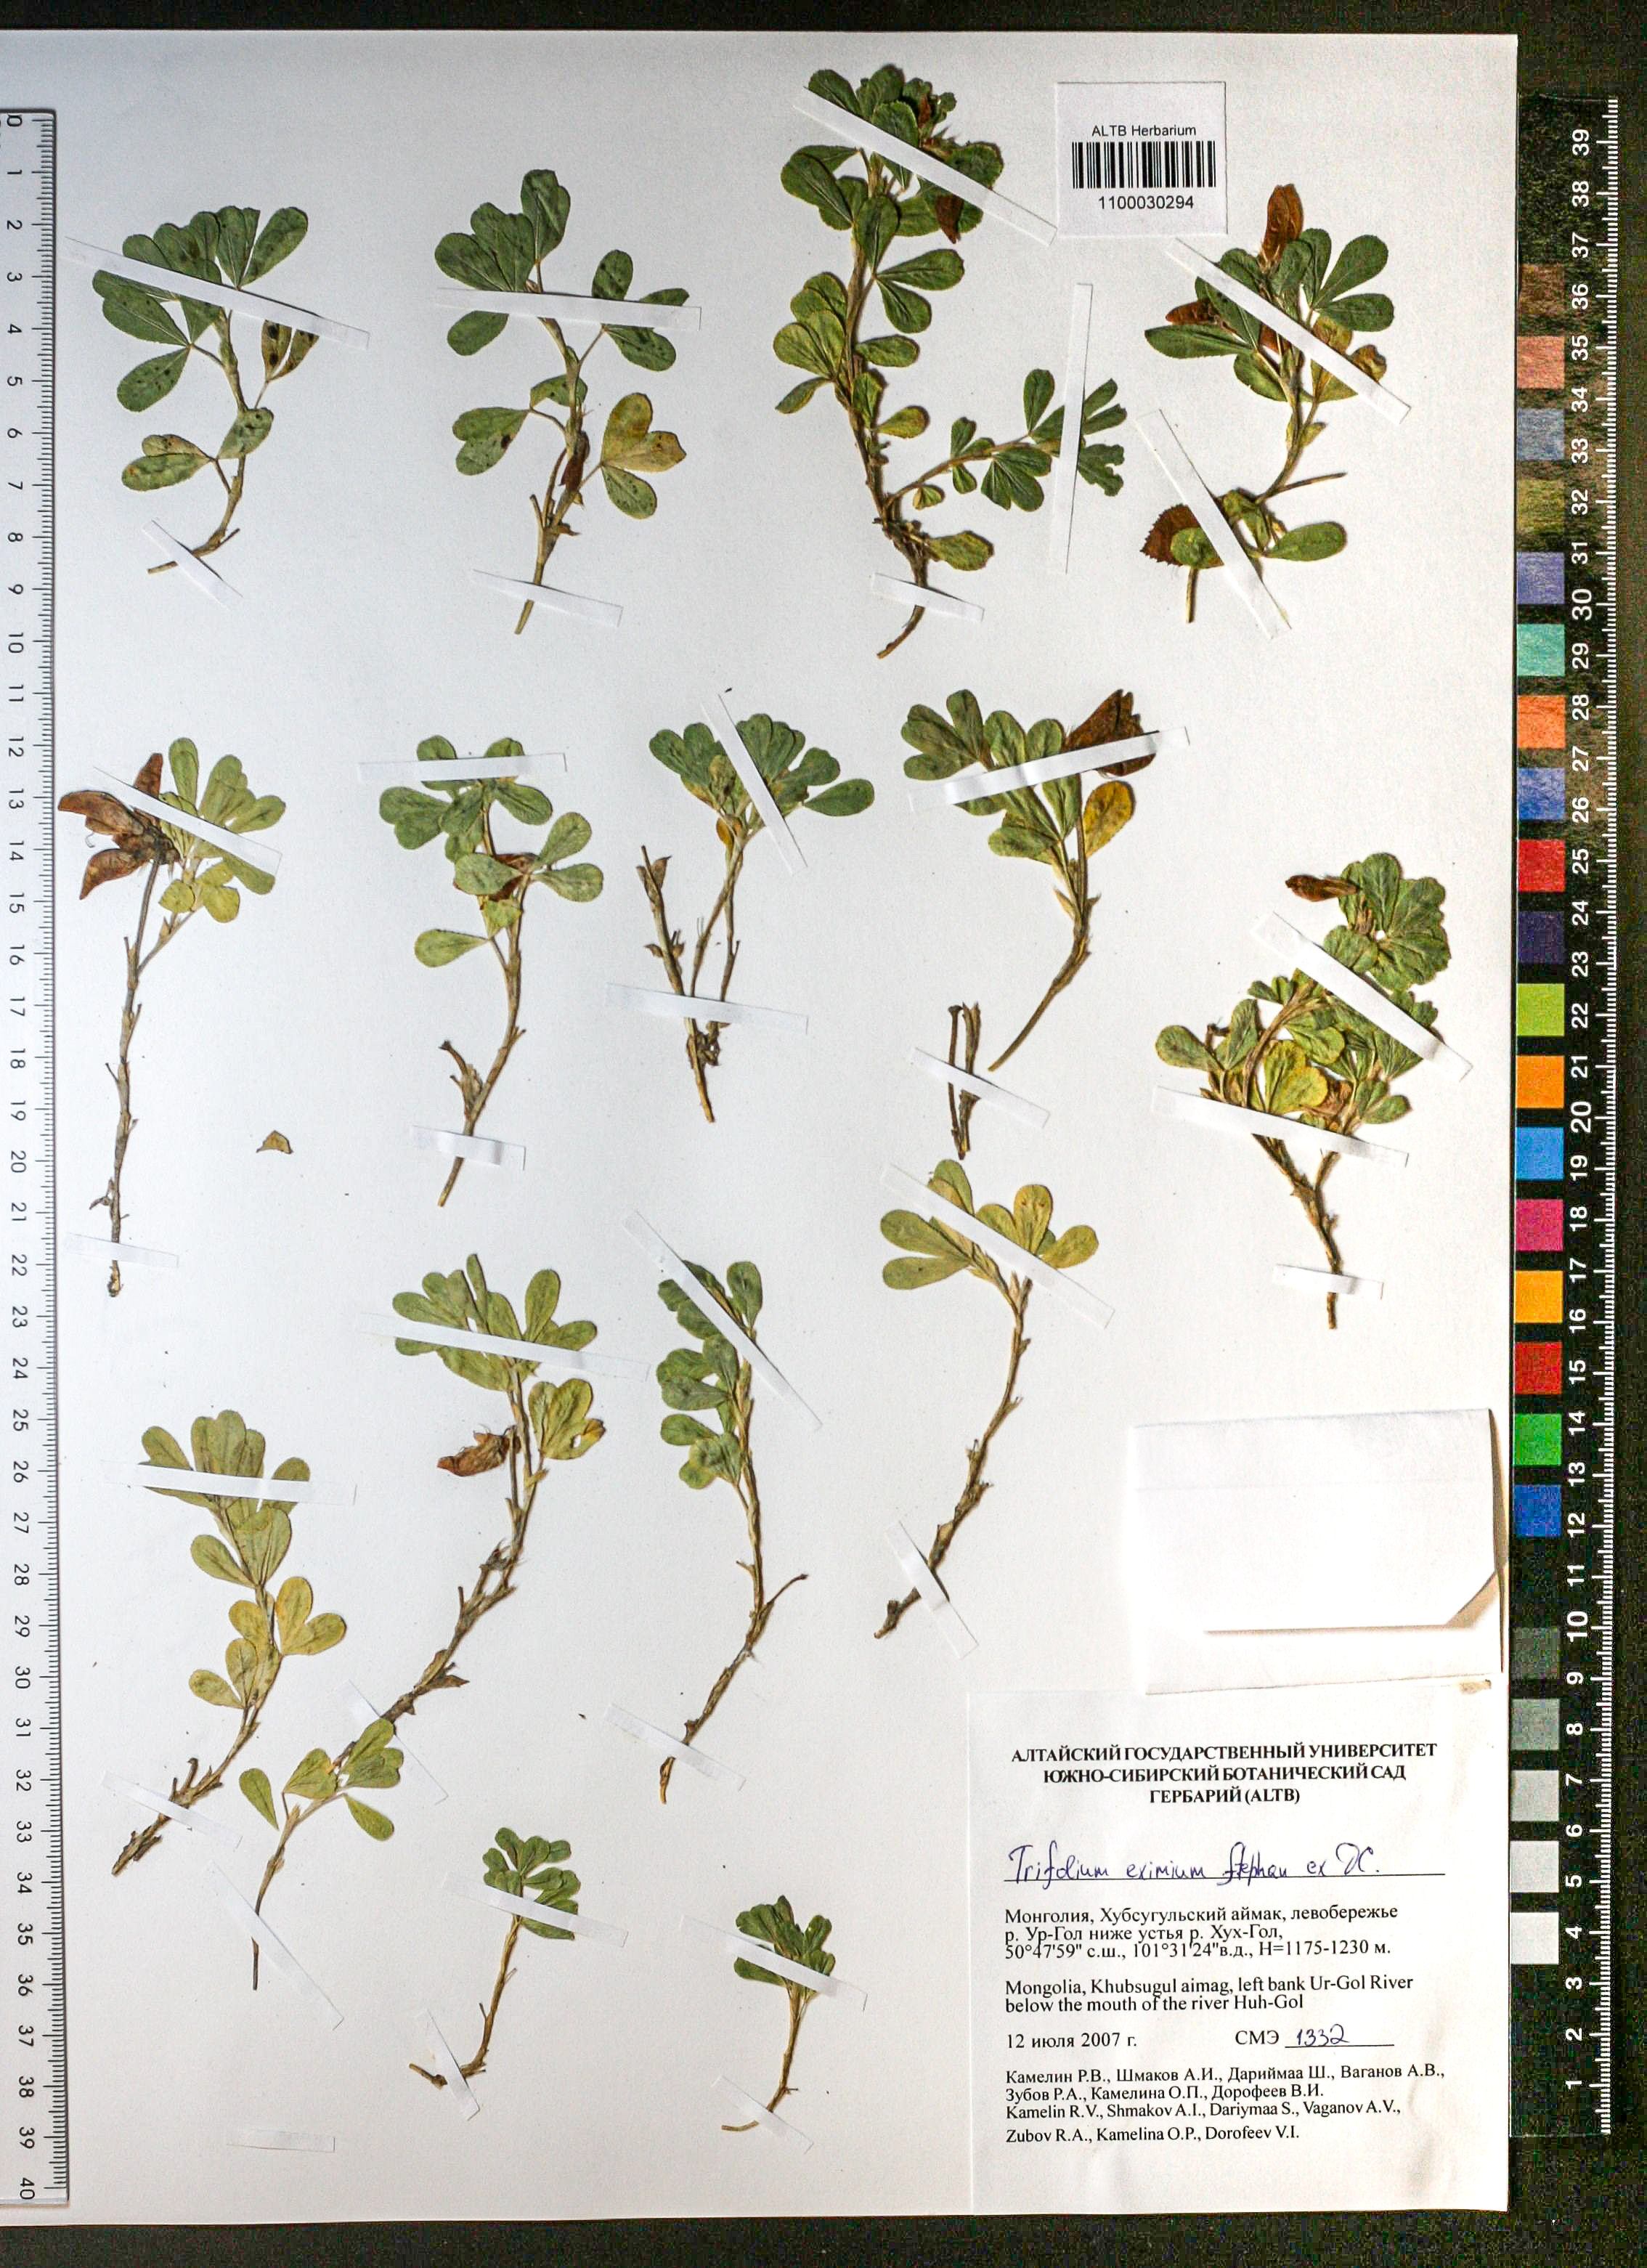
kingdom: Plantae
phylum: Tracheophyta
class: Magnoliopsida
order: Fabales
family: Fabaceae
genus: Trifolium
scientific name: Trifolium eximium
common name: Excellent clover
